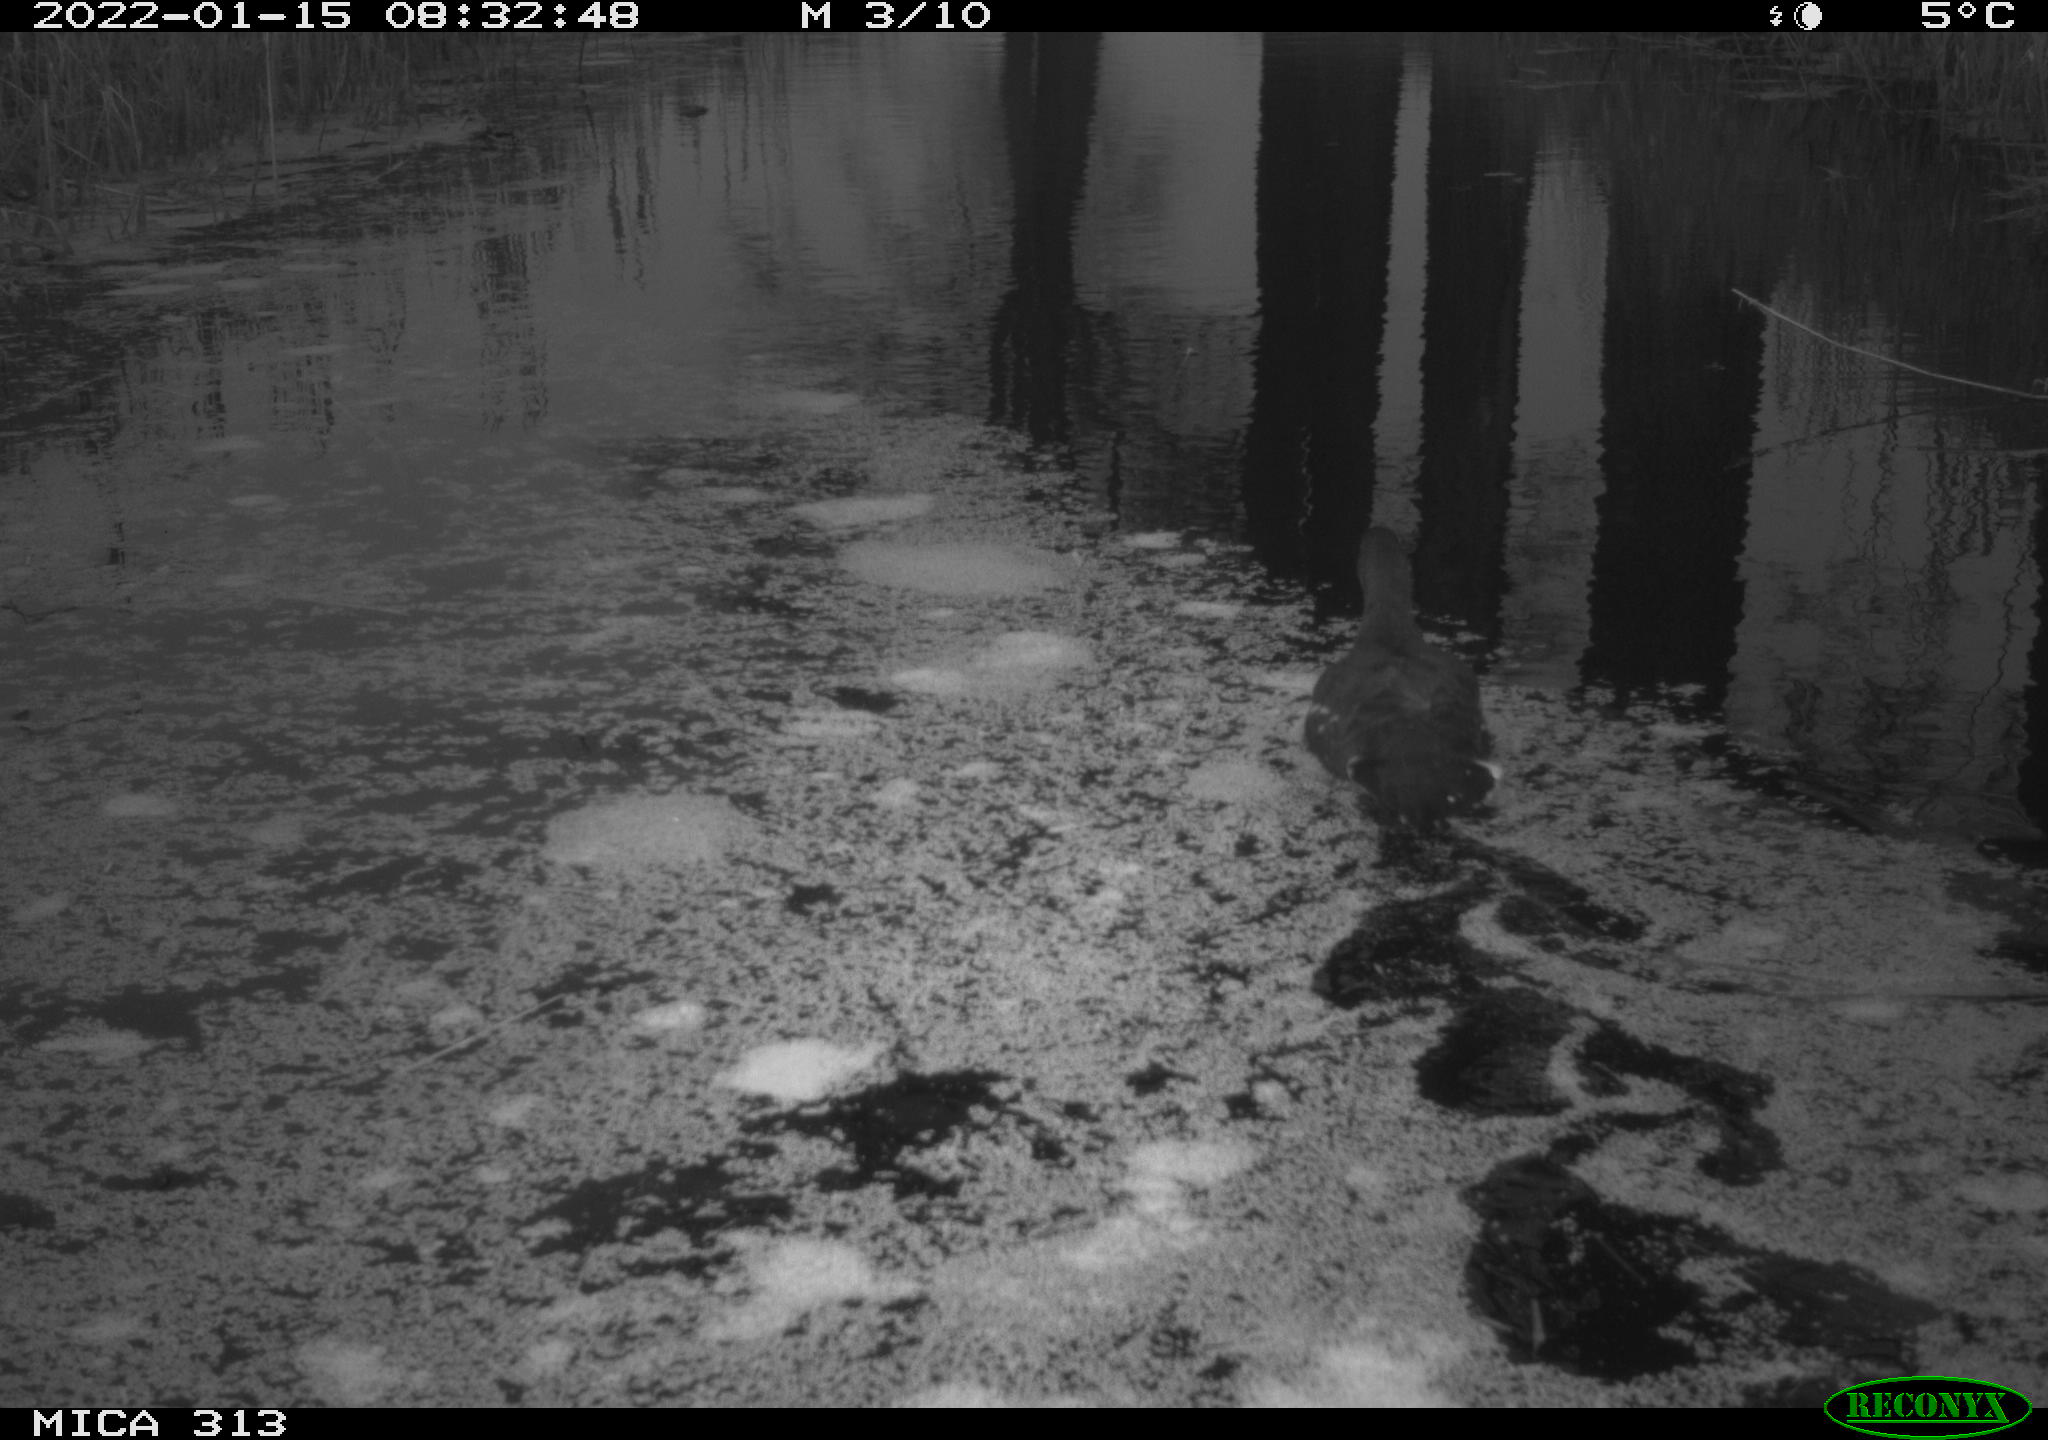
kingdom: Animalia
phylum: Chordata
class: Aves
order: Gruiformes
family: Rallidae
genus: Gallinula
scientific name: Gallinula chloropus
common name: Common moorhen
